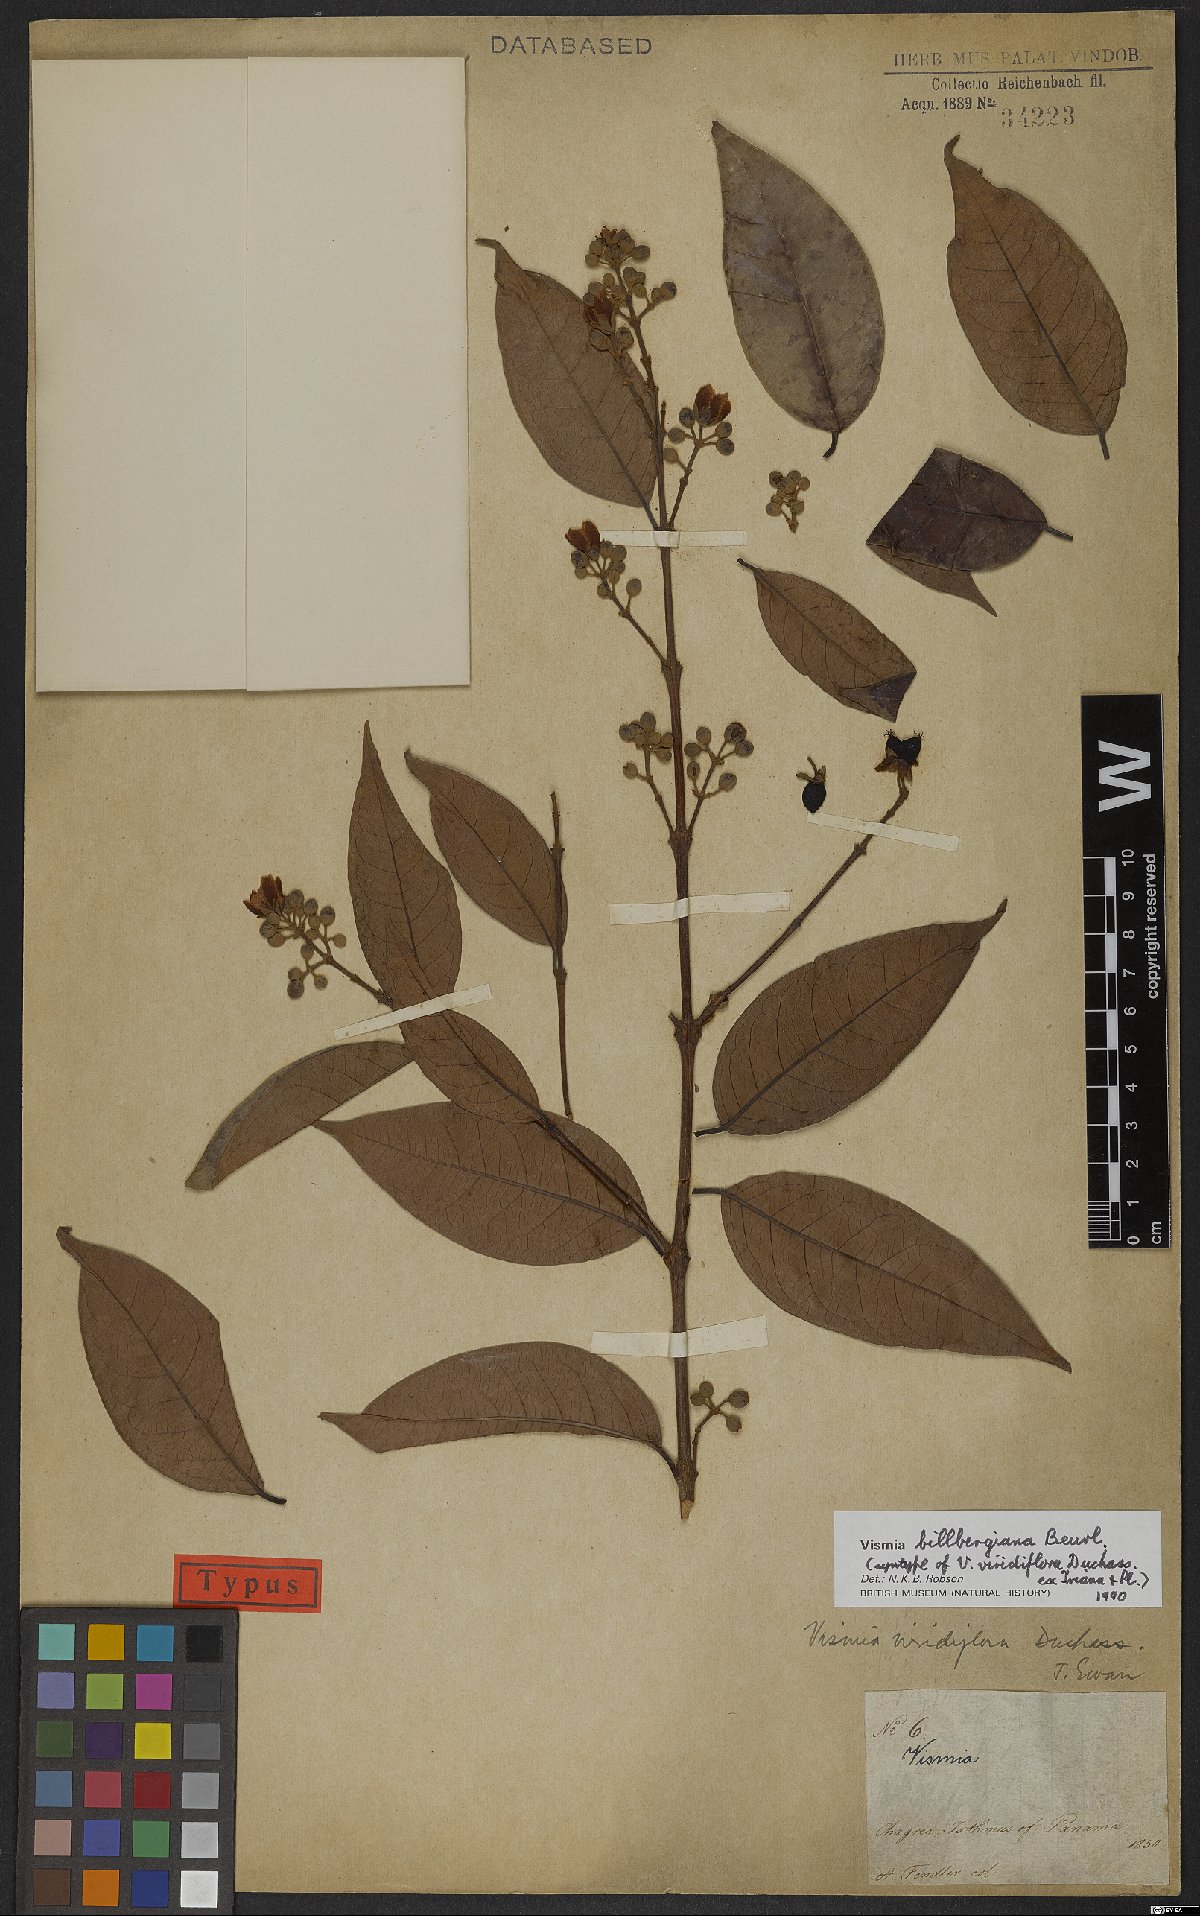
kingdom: Plantae
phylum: Tracheophyta
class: Magnoliopsida
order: Malpighiales
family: Hypericaceae
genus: Vismia
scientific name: Vismia billbergiana
